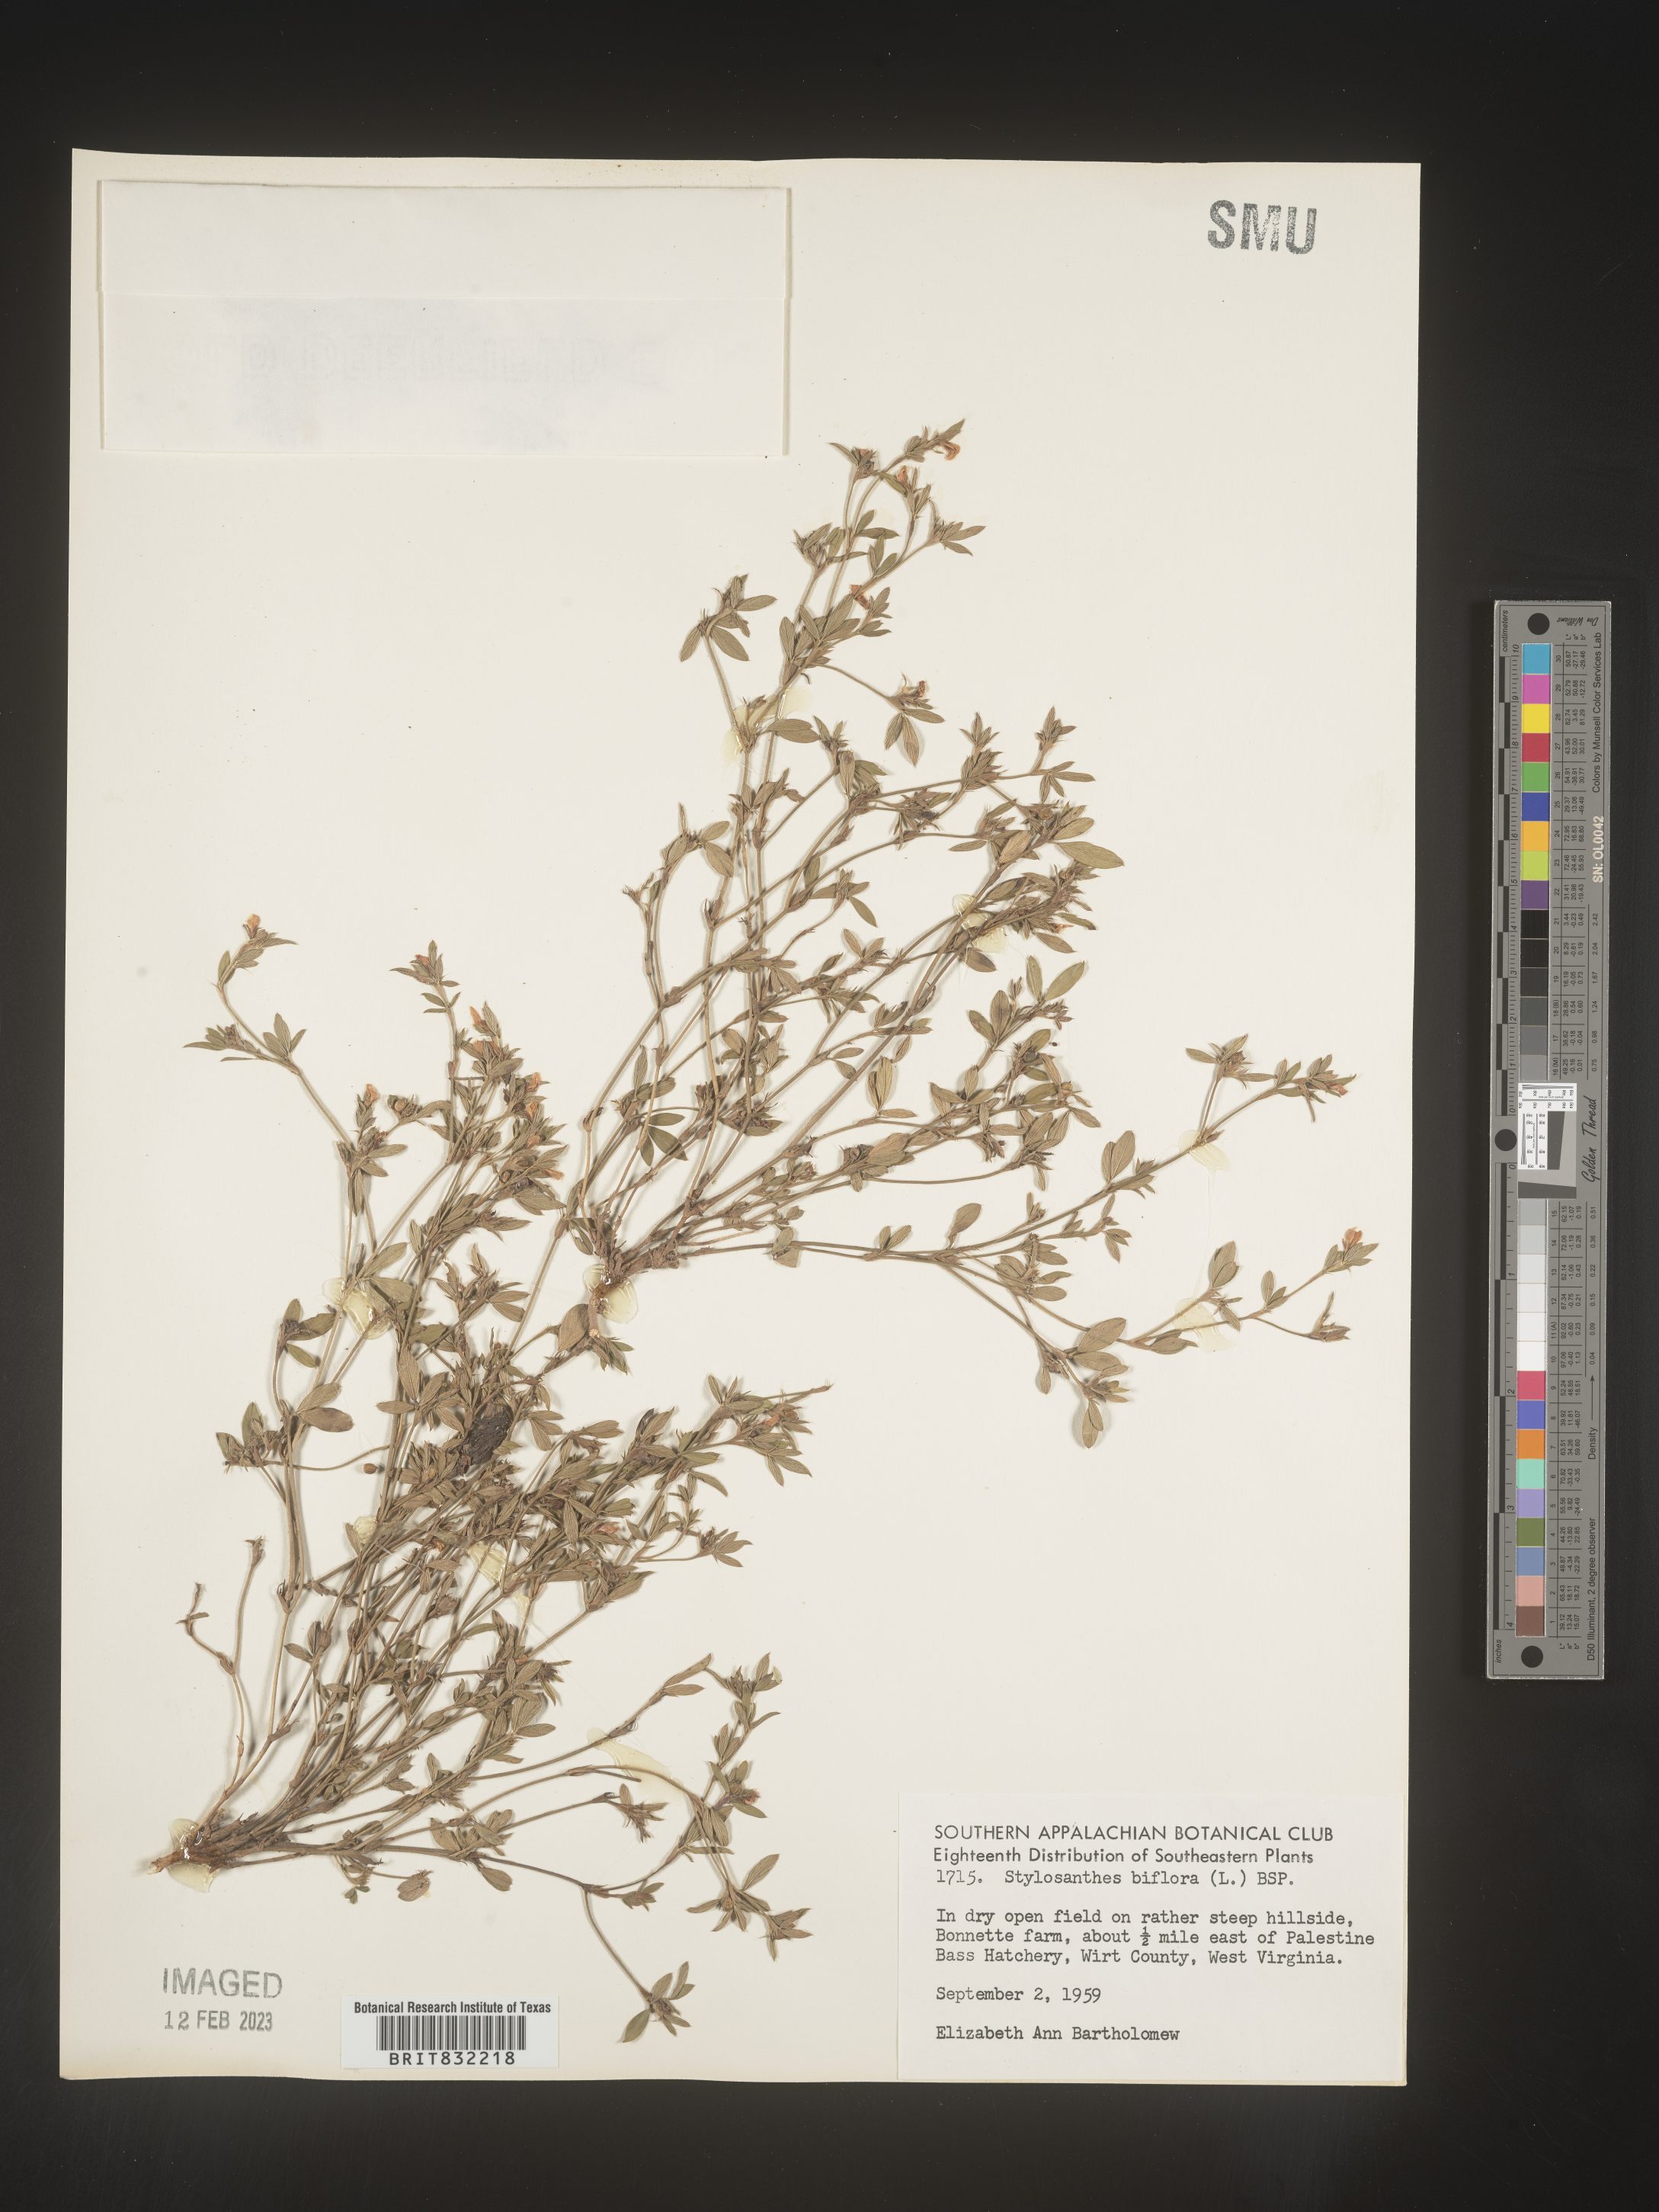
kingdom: Plantae
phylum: Tracheophyta
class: Magnoliopsida
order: Fabales
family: Fabaceae
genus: Stylosanthes
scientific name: Stylosanthes biflora
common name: Two-flower pencil-flower
